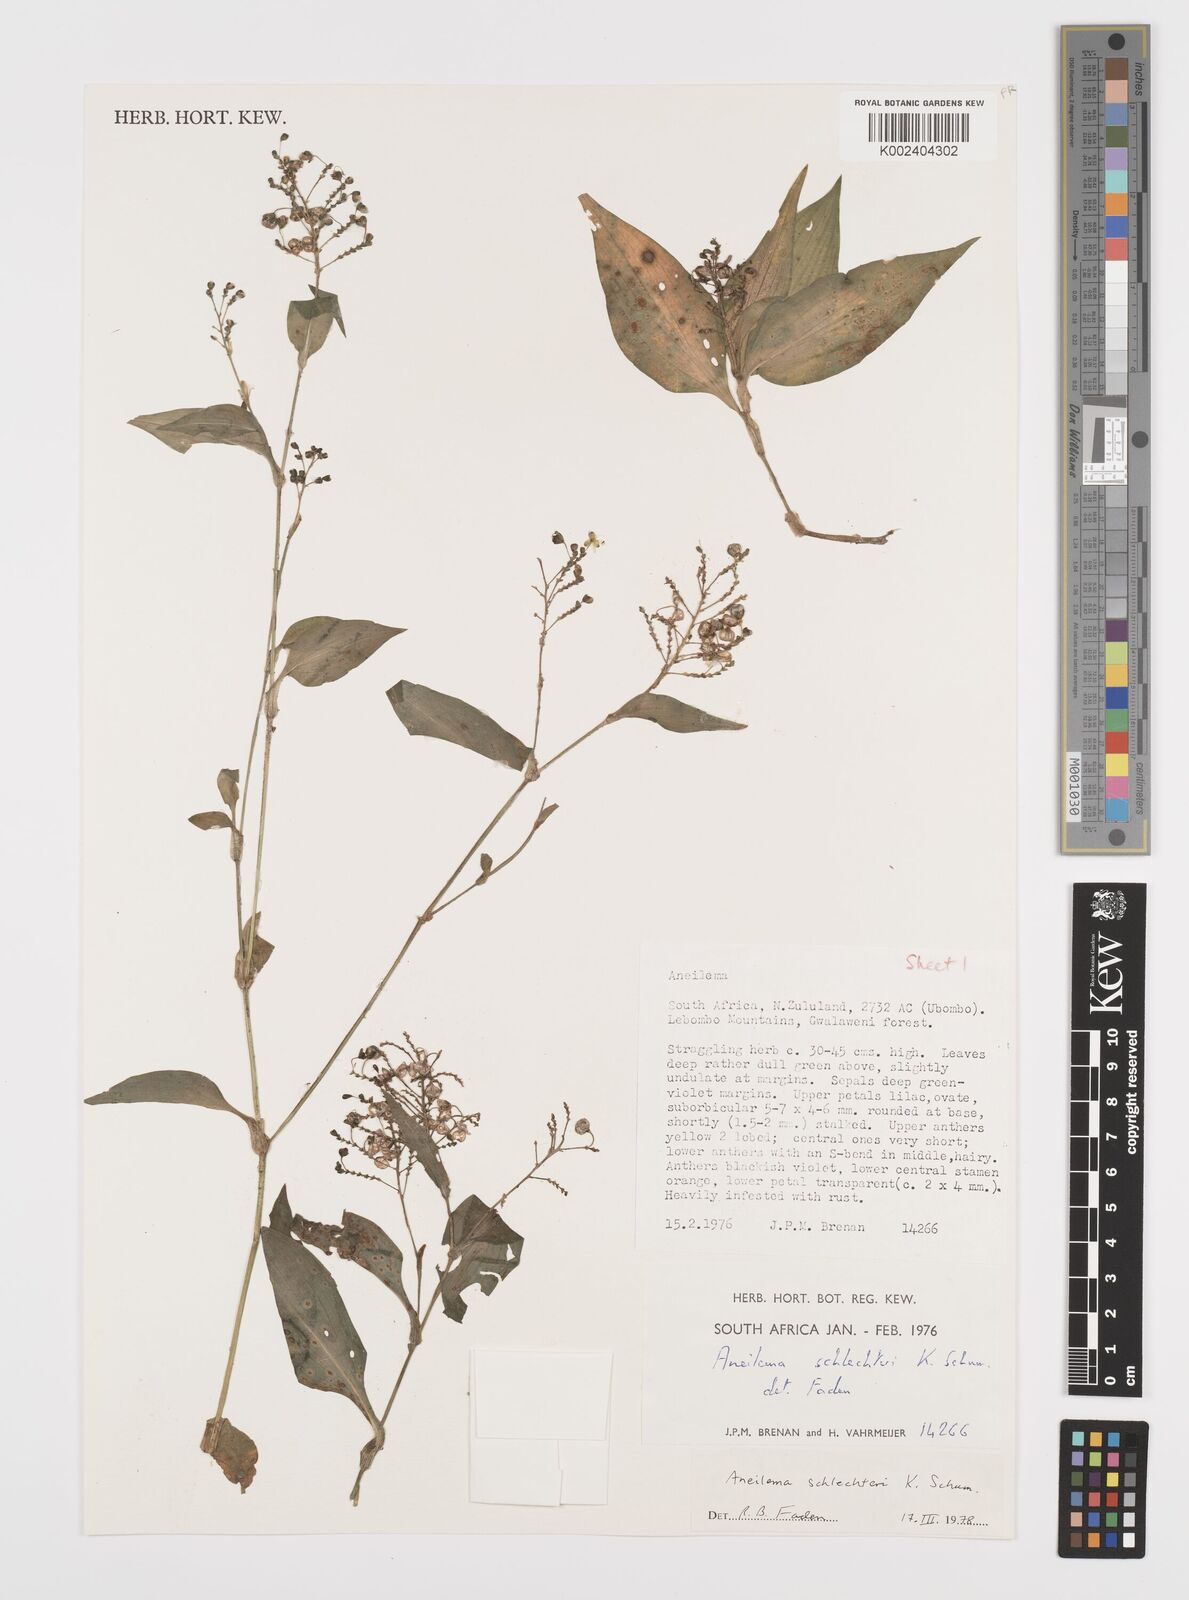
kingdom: Plantae
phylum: Tracheophyta
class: Liliopsida
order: Commelinales
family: Commelinaceae
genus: Aneilema
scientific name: Aneilema schlechteri
